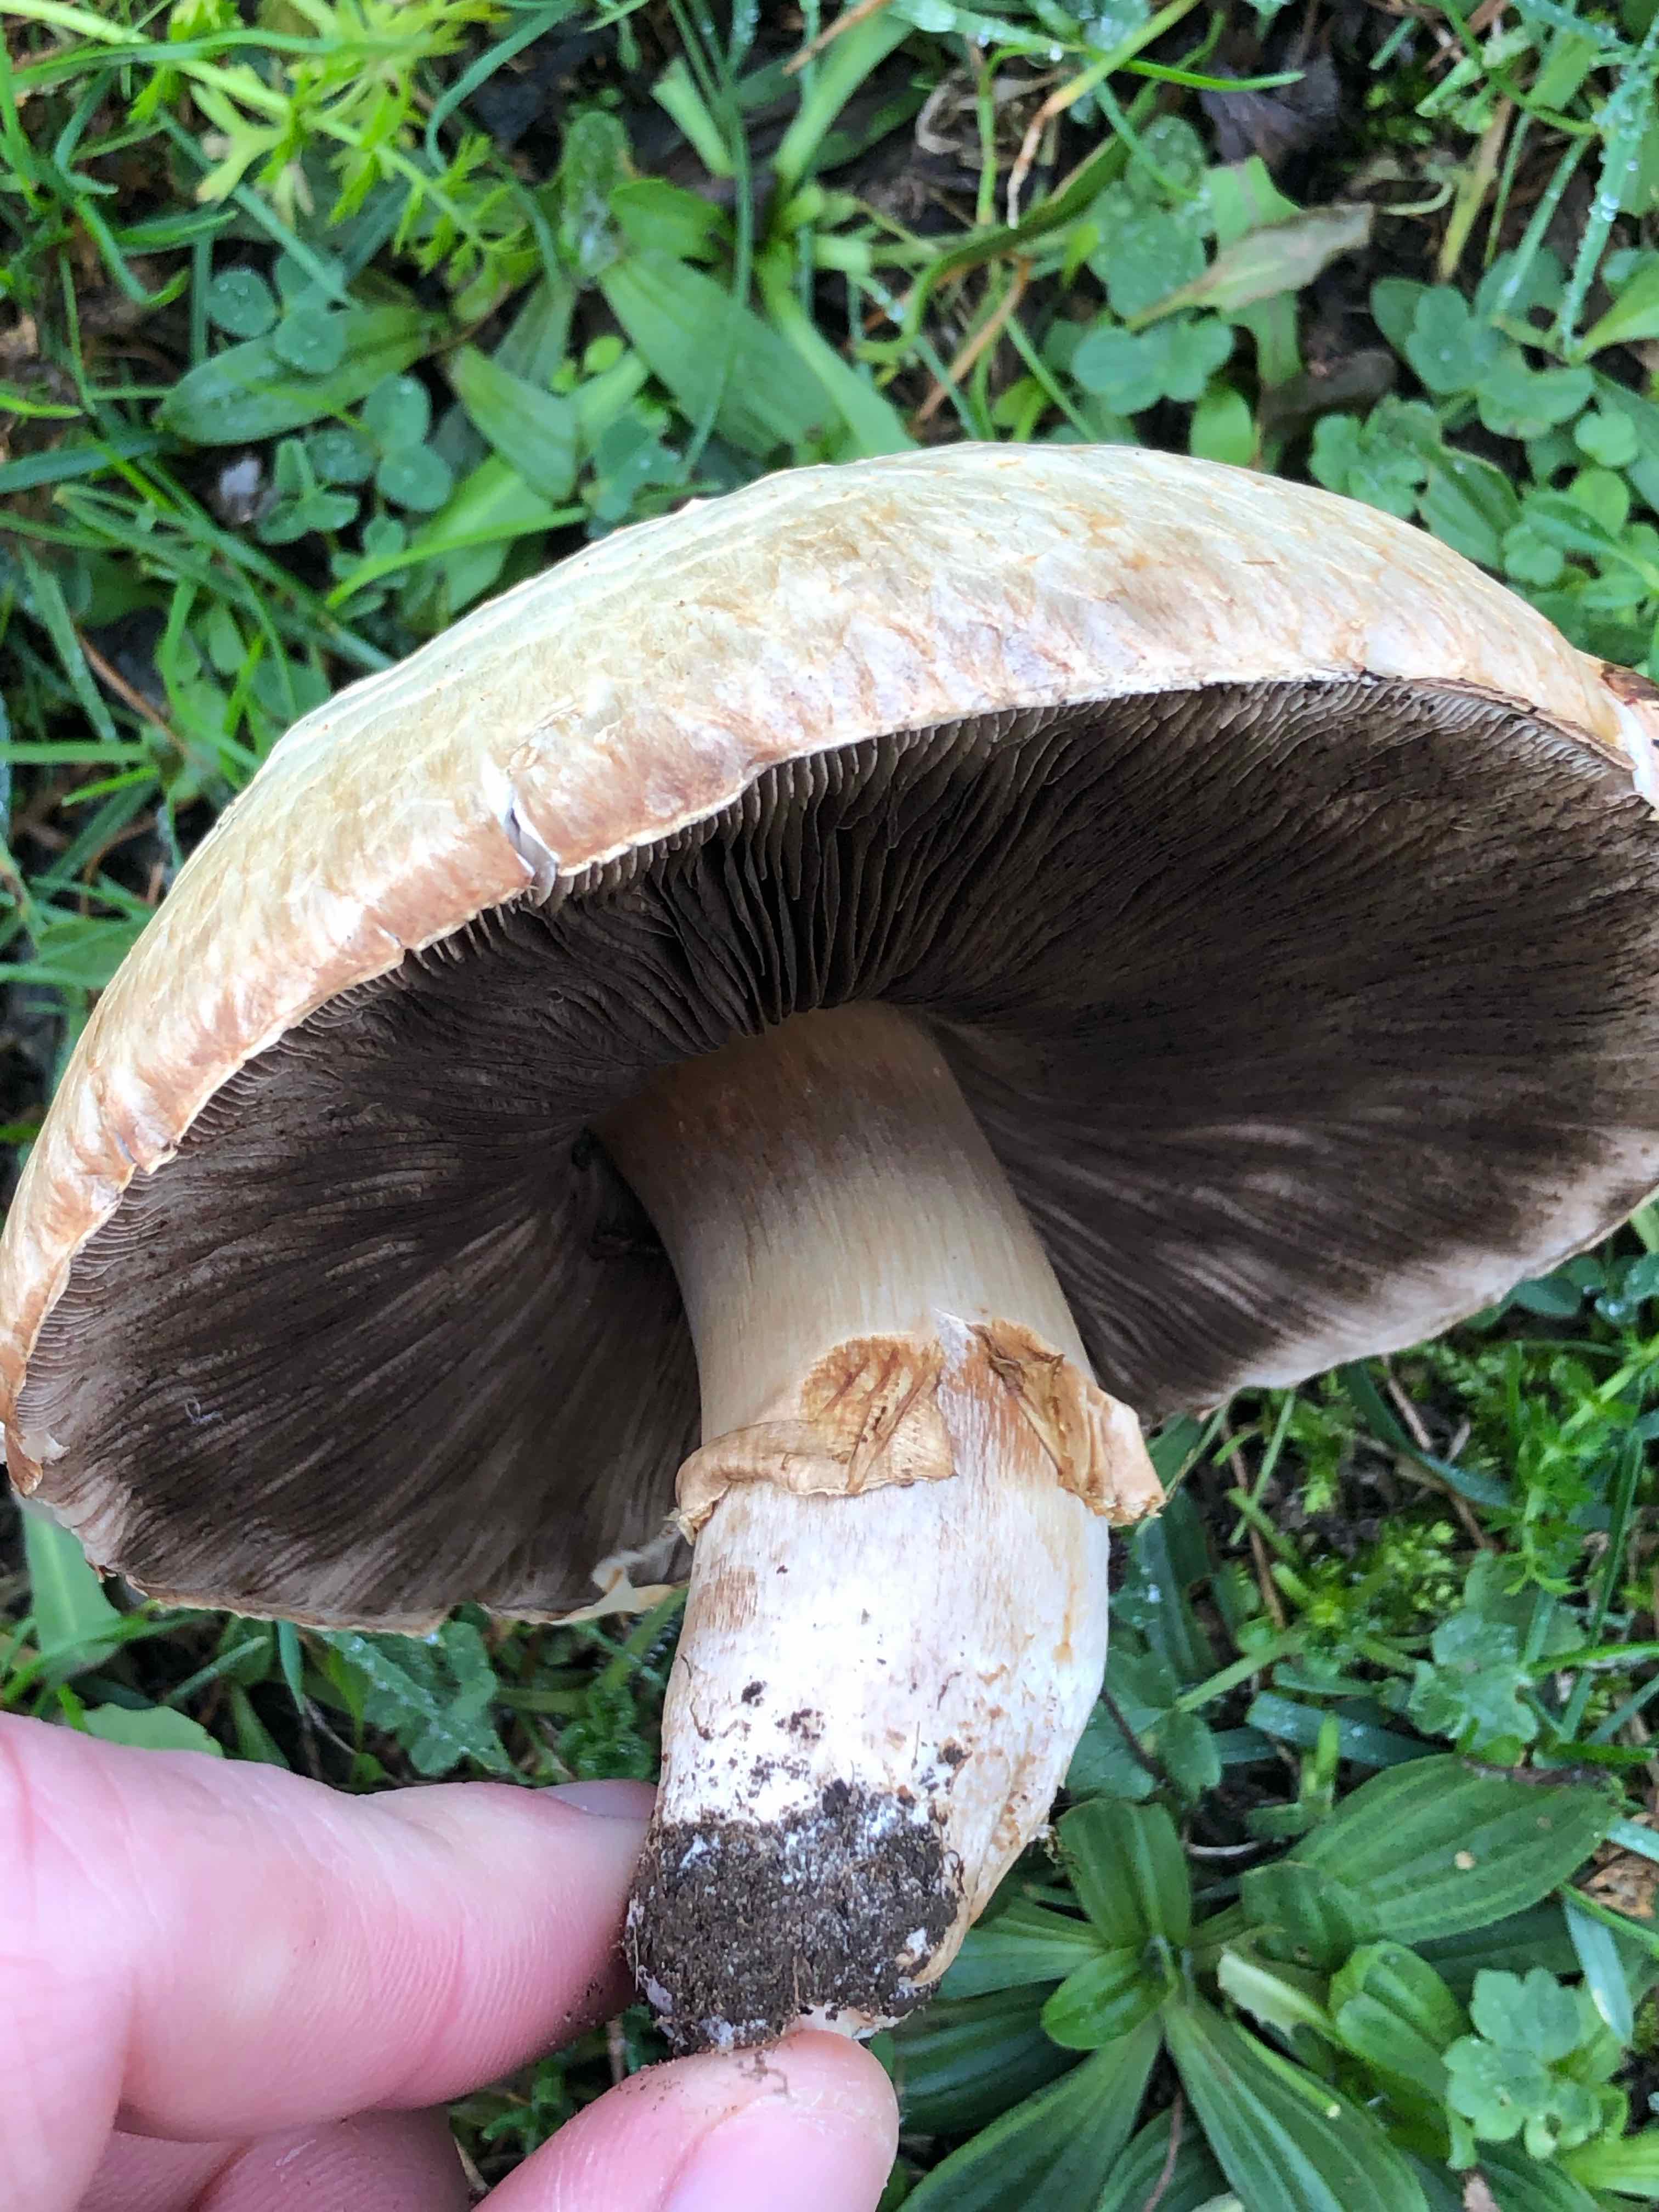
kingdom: Fungi
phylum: Basidiomycota
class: Agaricomycetes
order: Agaricales
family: Agaricaceae
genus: Agaricus
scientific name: Agaricus
